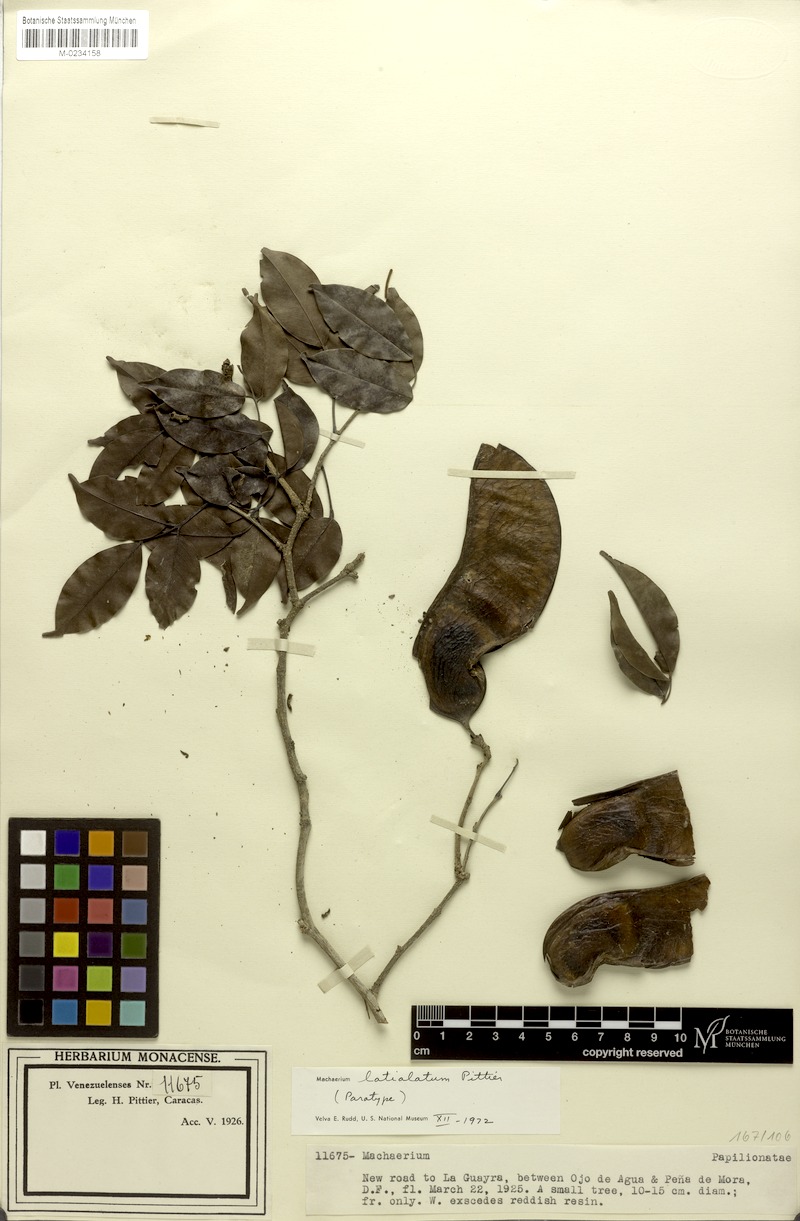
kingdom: Plantae
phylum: Tracheophyta
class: Magnoliopsida
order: Fabales
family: Fabaceae
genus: Machaerium
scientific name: Machaerium latialatum
